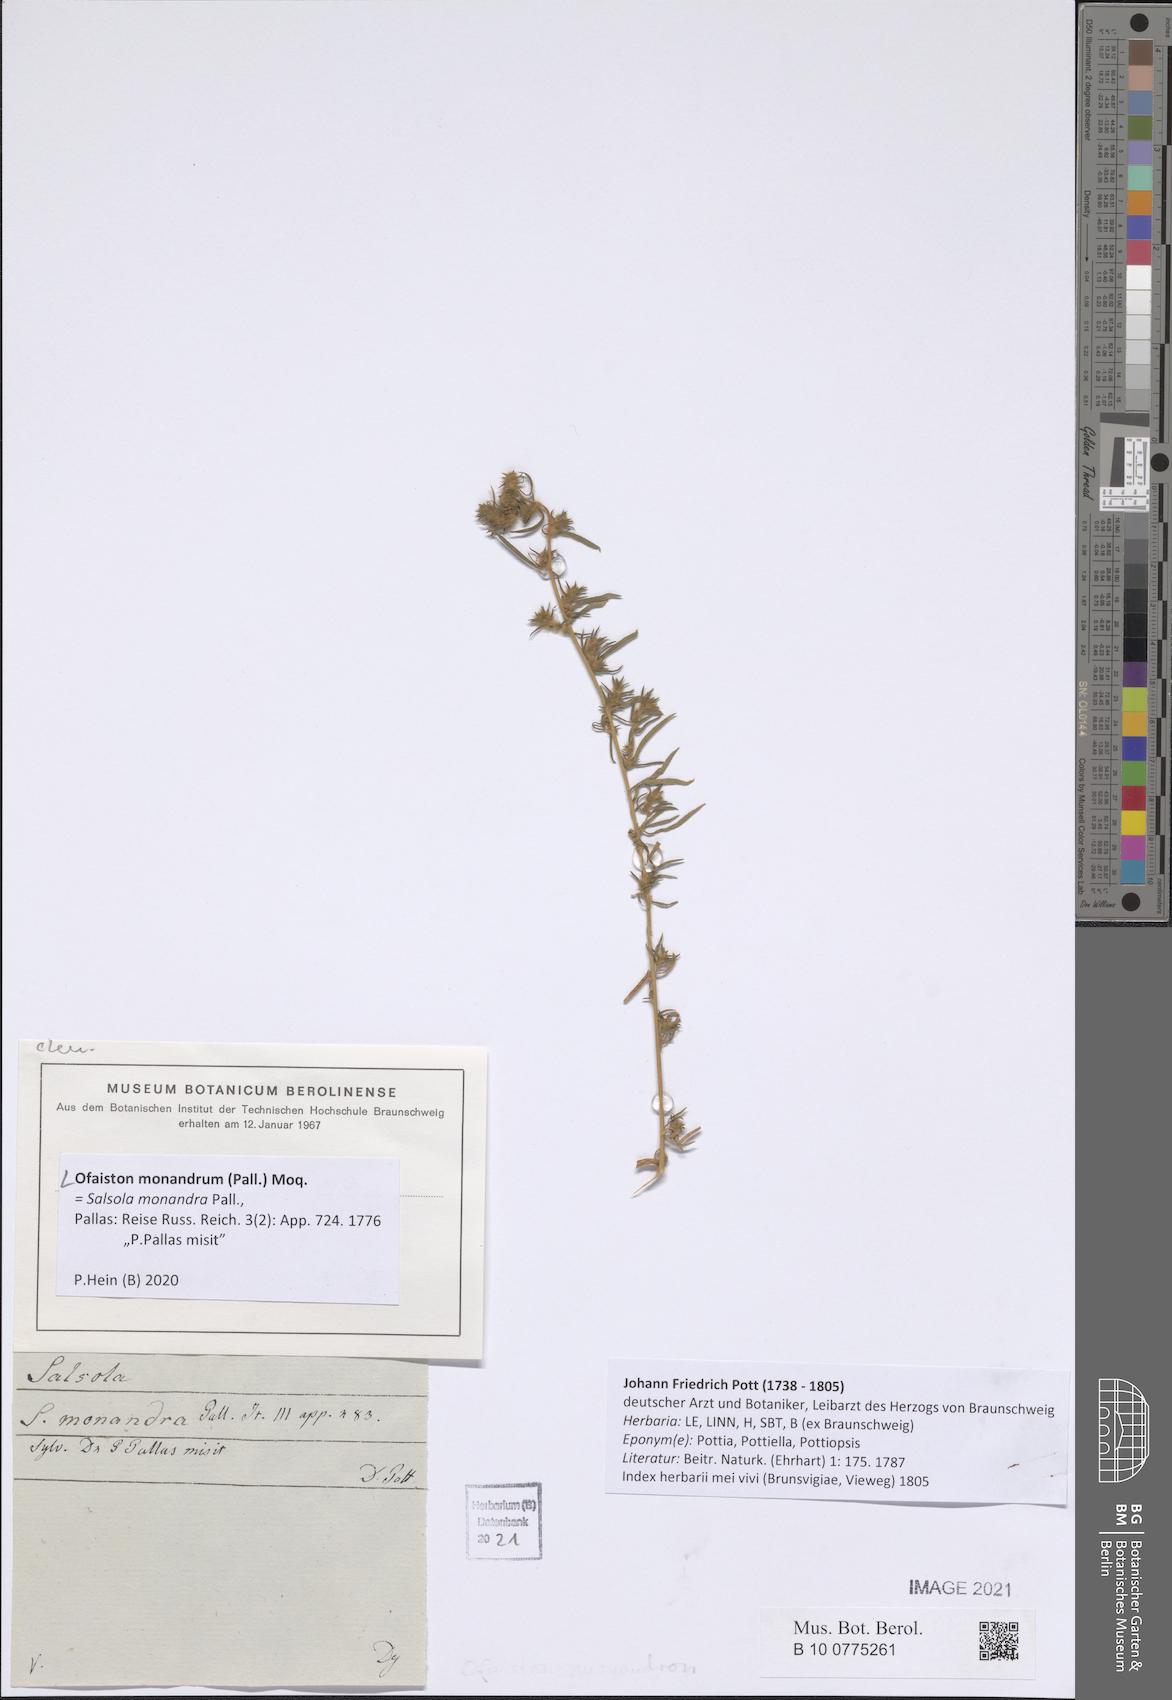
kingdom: Plantae
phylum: Tracheophyta
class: Magnoliopsida
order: Caryophyllales
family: Amaranthaceae
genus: Ofaiston
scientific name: Ofaiston monandrum
